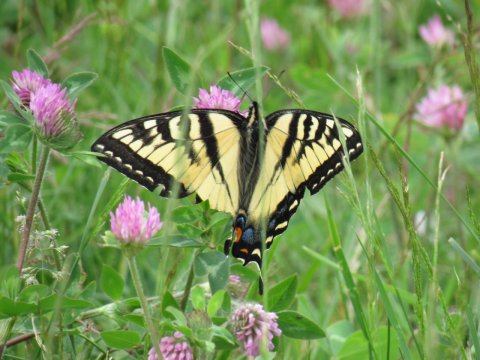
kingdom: Animalia
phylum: Arthropoda
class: Insecta
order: Lepidoptera
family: Papilionidae
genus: Pterourus
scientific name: Pterourus canadensis
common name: Canadian Tiger Swallowtail
